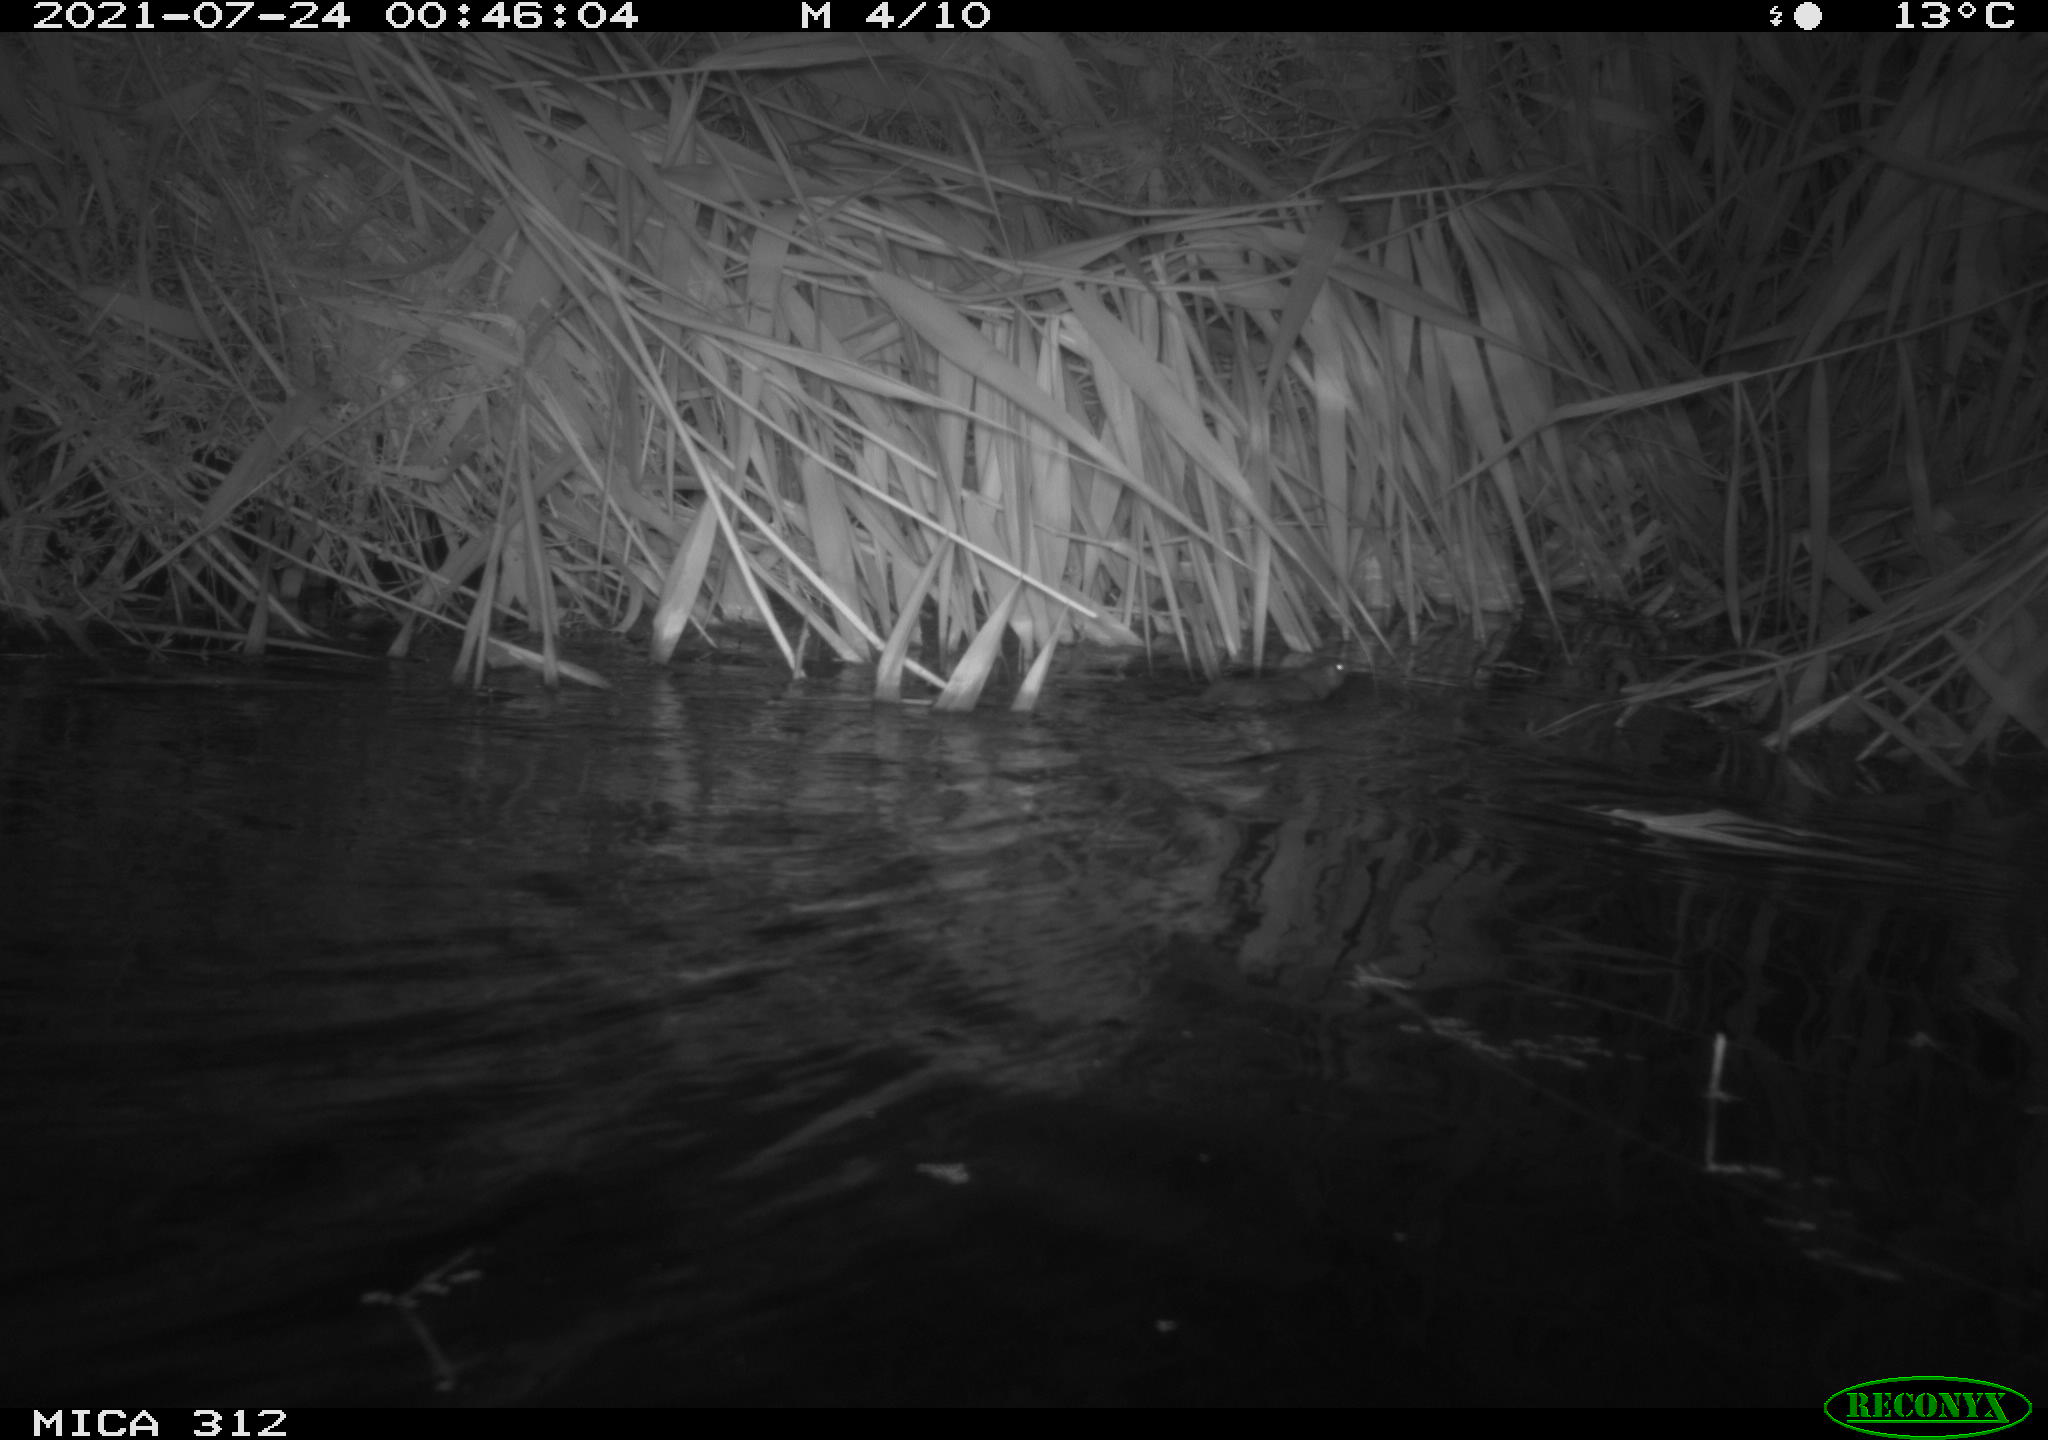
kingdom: Animalia
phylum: Chordata
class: Mammalia
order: Rodentia
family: Muridae
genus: Rattus
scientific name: Rattus norvegicus
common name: Brown rat
